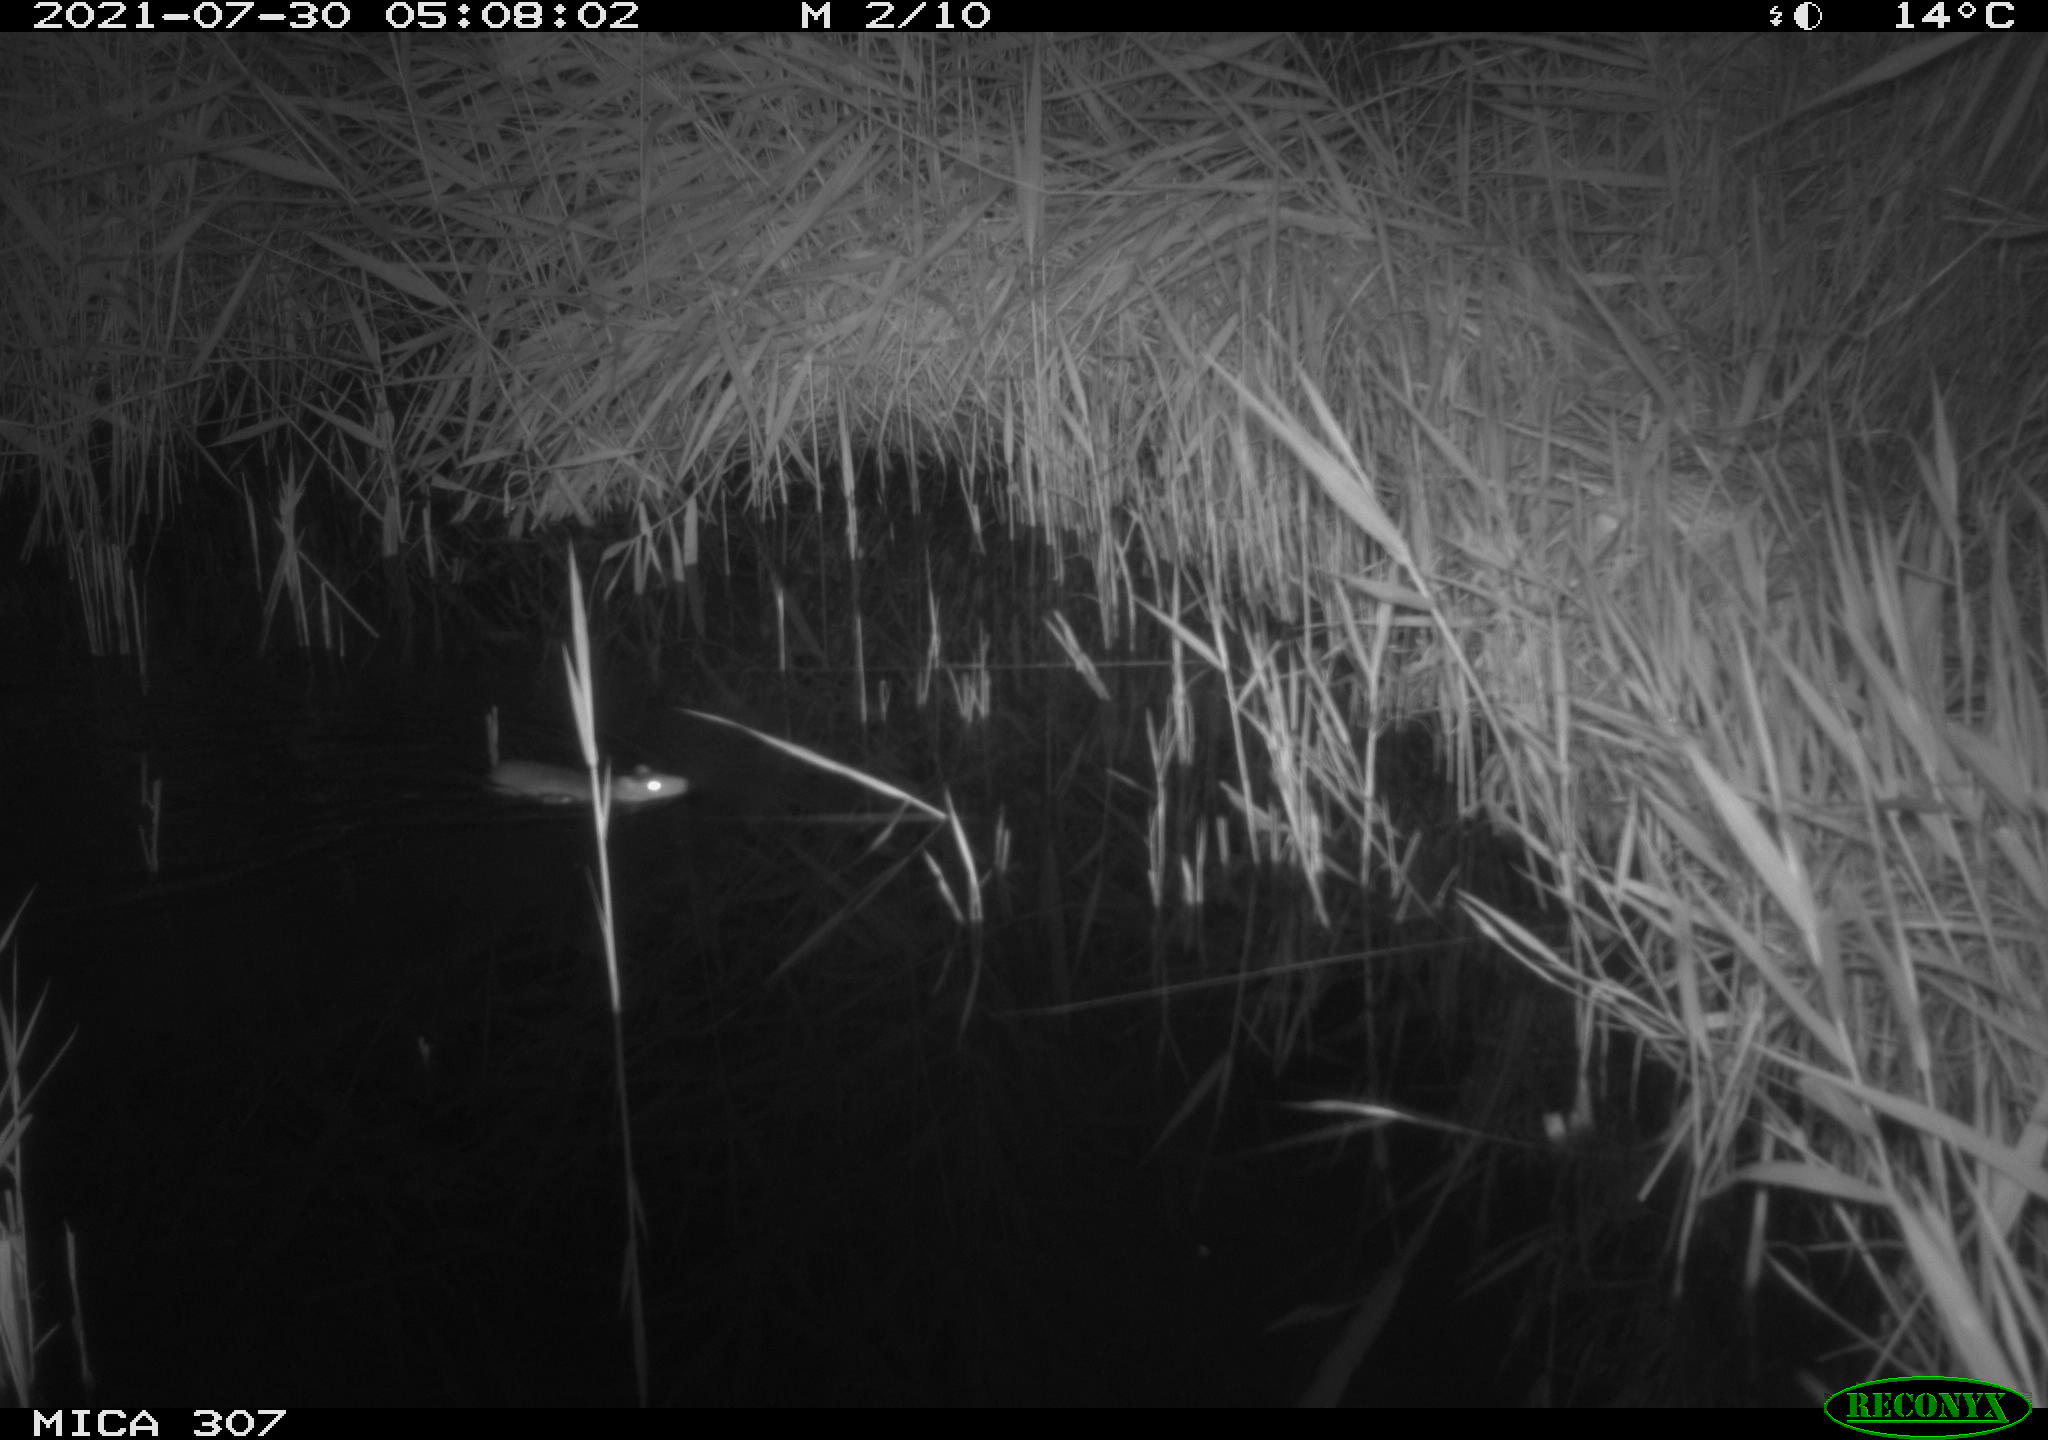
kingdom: Animalia
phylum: Chordata
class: Mammalia
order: Rodentia
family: Muridae
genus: Rattus
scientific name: Rattus norvegicus
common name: Brown rat
